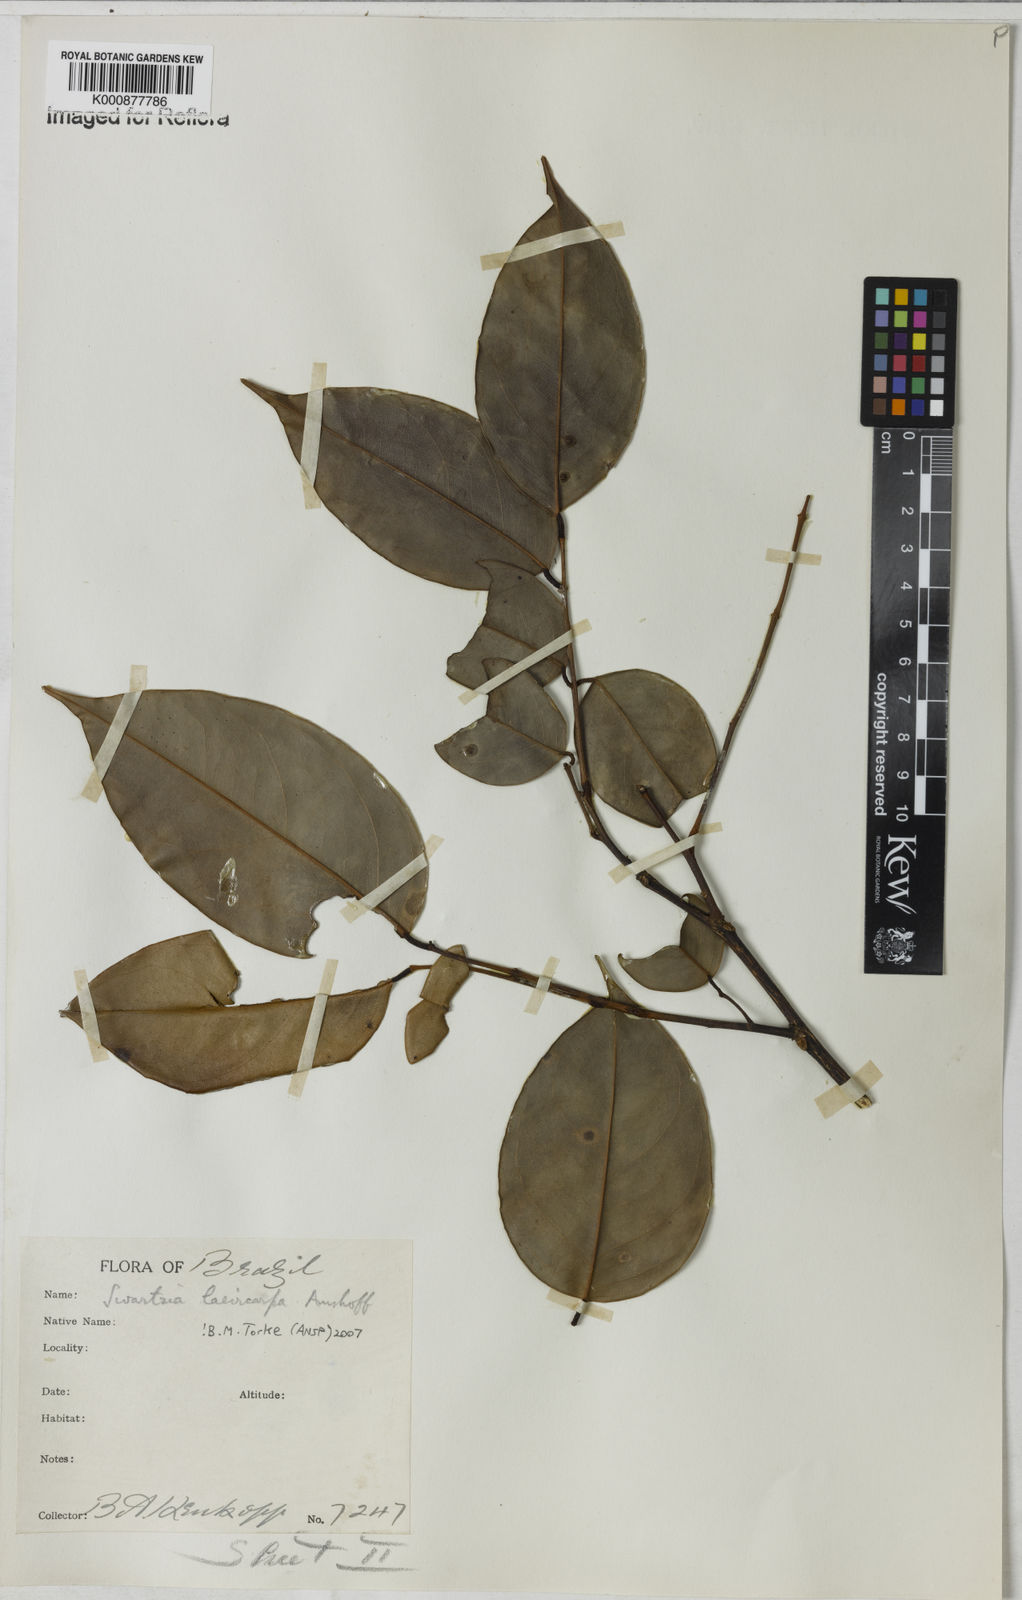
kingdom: Plantae
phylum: Tracheophyta
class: Magnoliopsida
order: Fabales
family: Fabaceae
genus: Swartzia
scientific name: Swartzia laevicarpa
